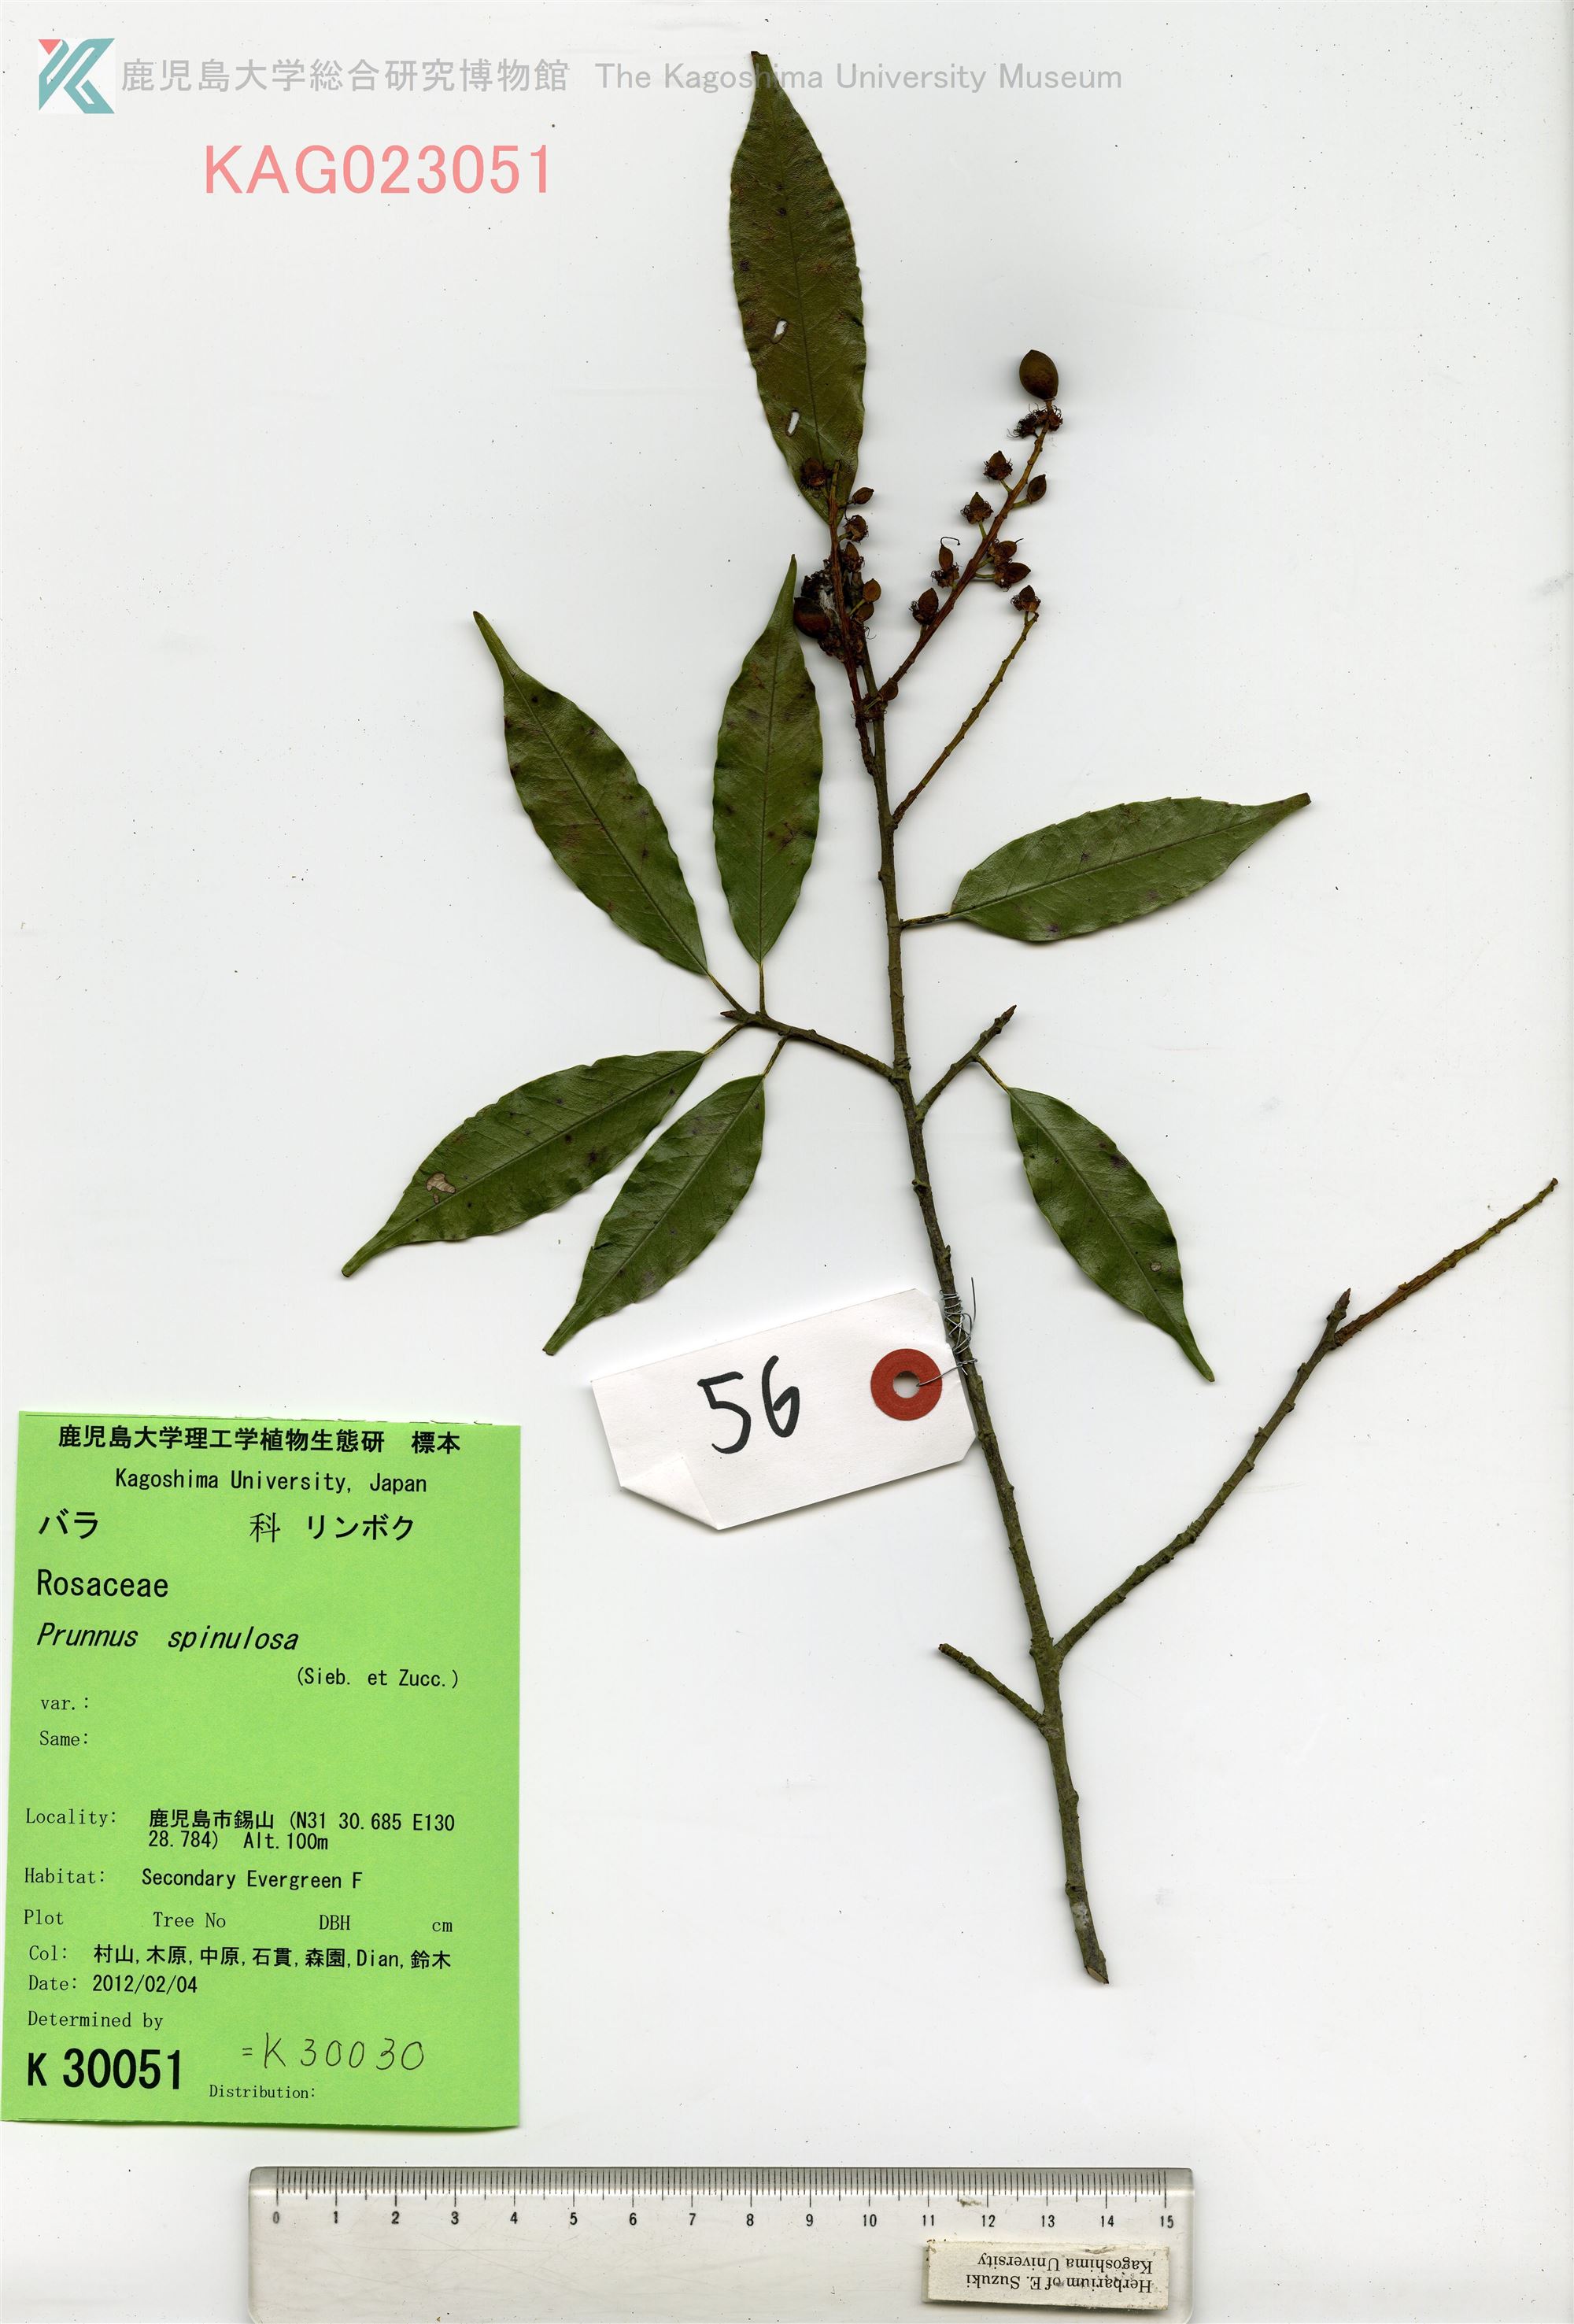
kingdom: Plantae
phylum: Tracheophyta
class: Magnoliopsida
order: Rosales
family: Rosaceae
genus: Prunus
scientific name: Prunus spinulosa
